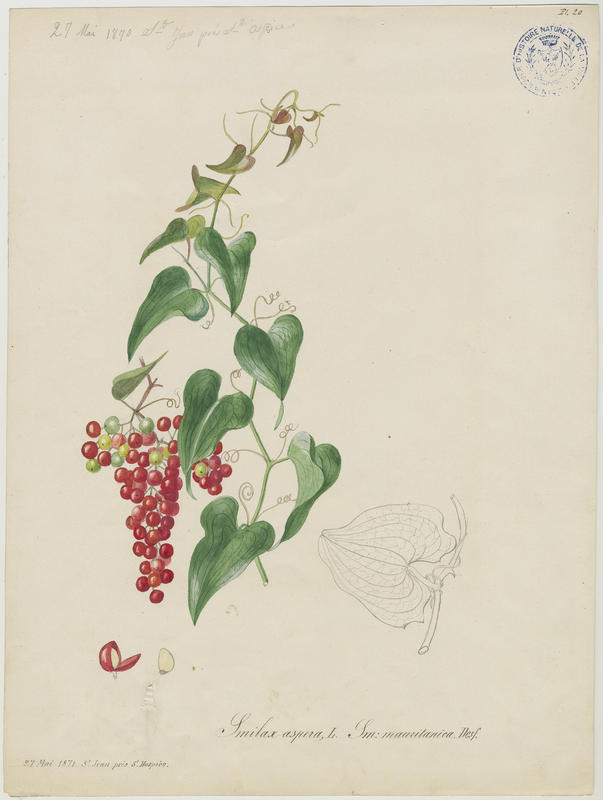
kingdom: Plantae
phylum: Tracheophyta
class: Liliopsida
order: Liliales
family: Smilacaceae
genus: Smilax
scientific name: Smilax aspera
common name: Common smilax
